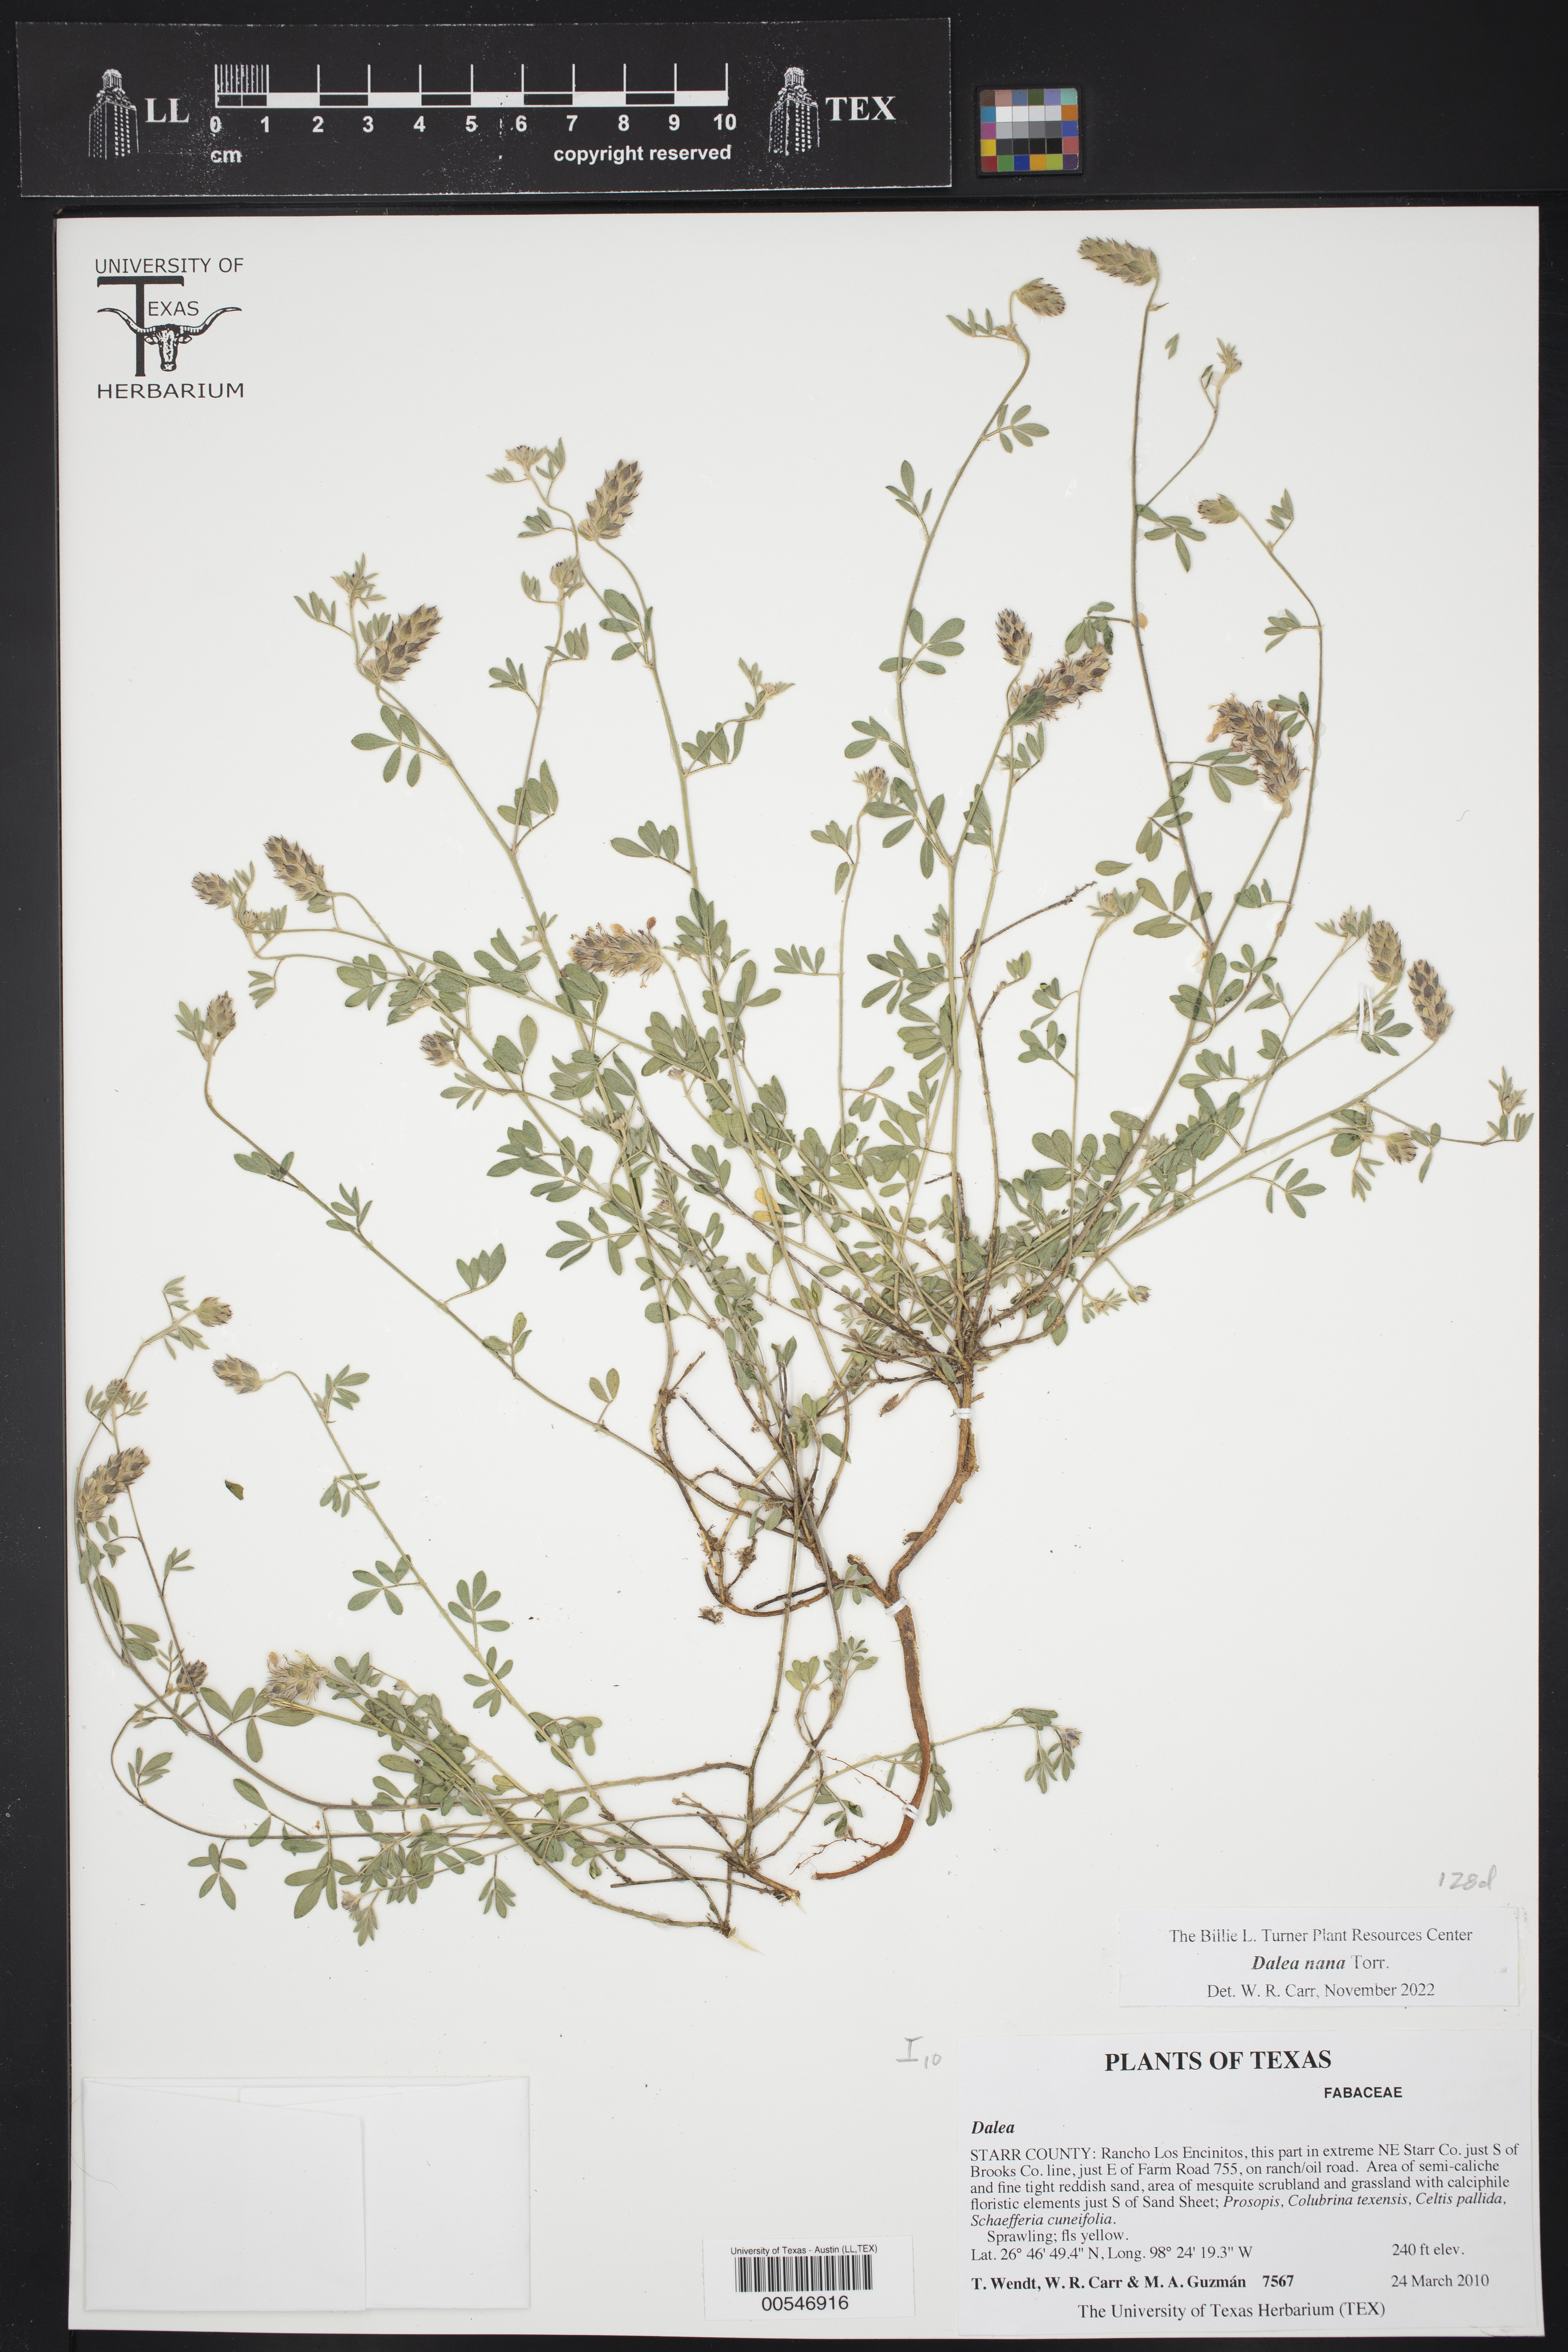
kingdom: Plantae
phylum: Tracheophyta
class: Magnoliopsida
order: Fabales
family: Fabaceae
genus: Dalea
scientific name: Dalea nana
